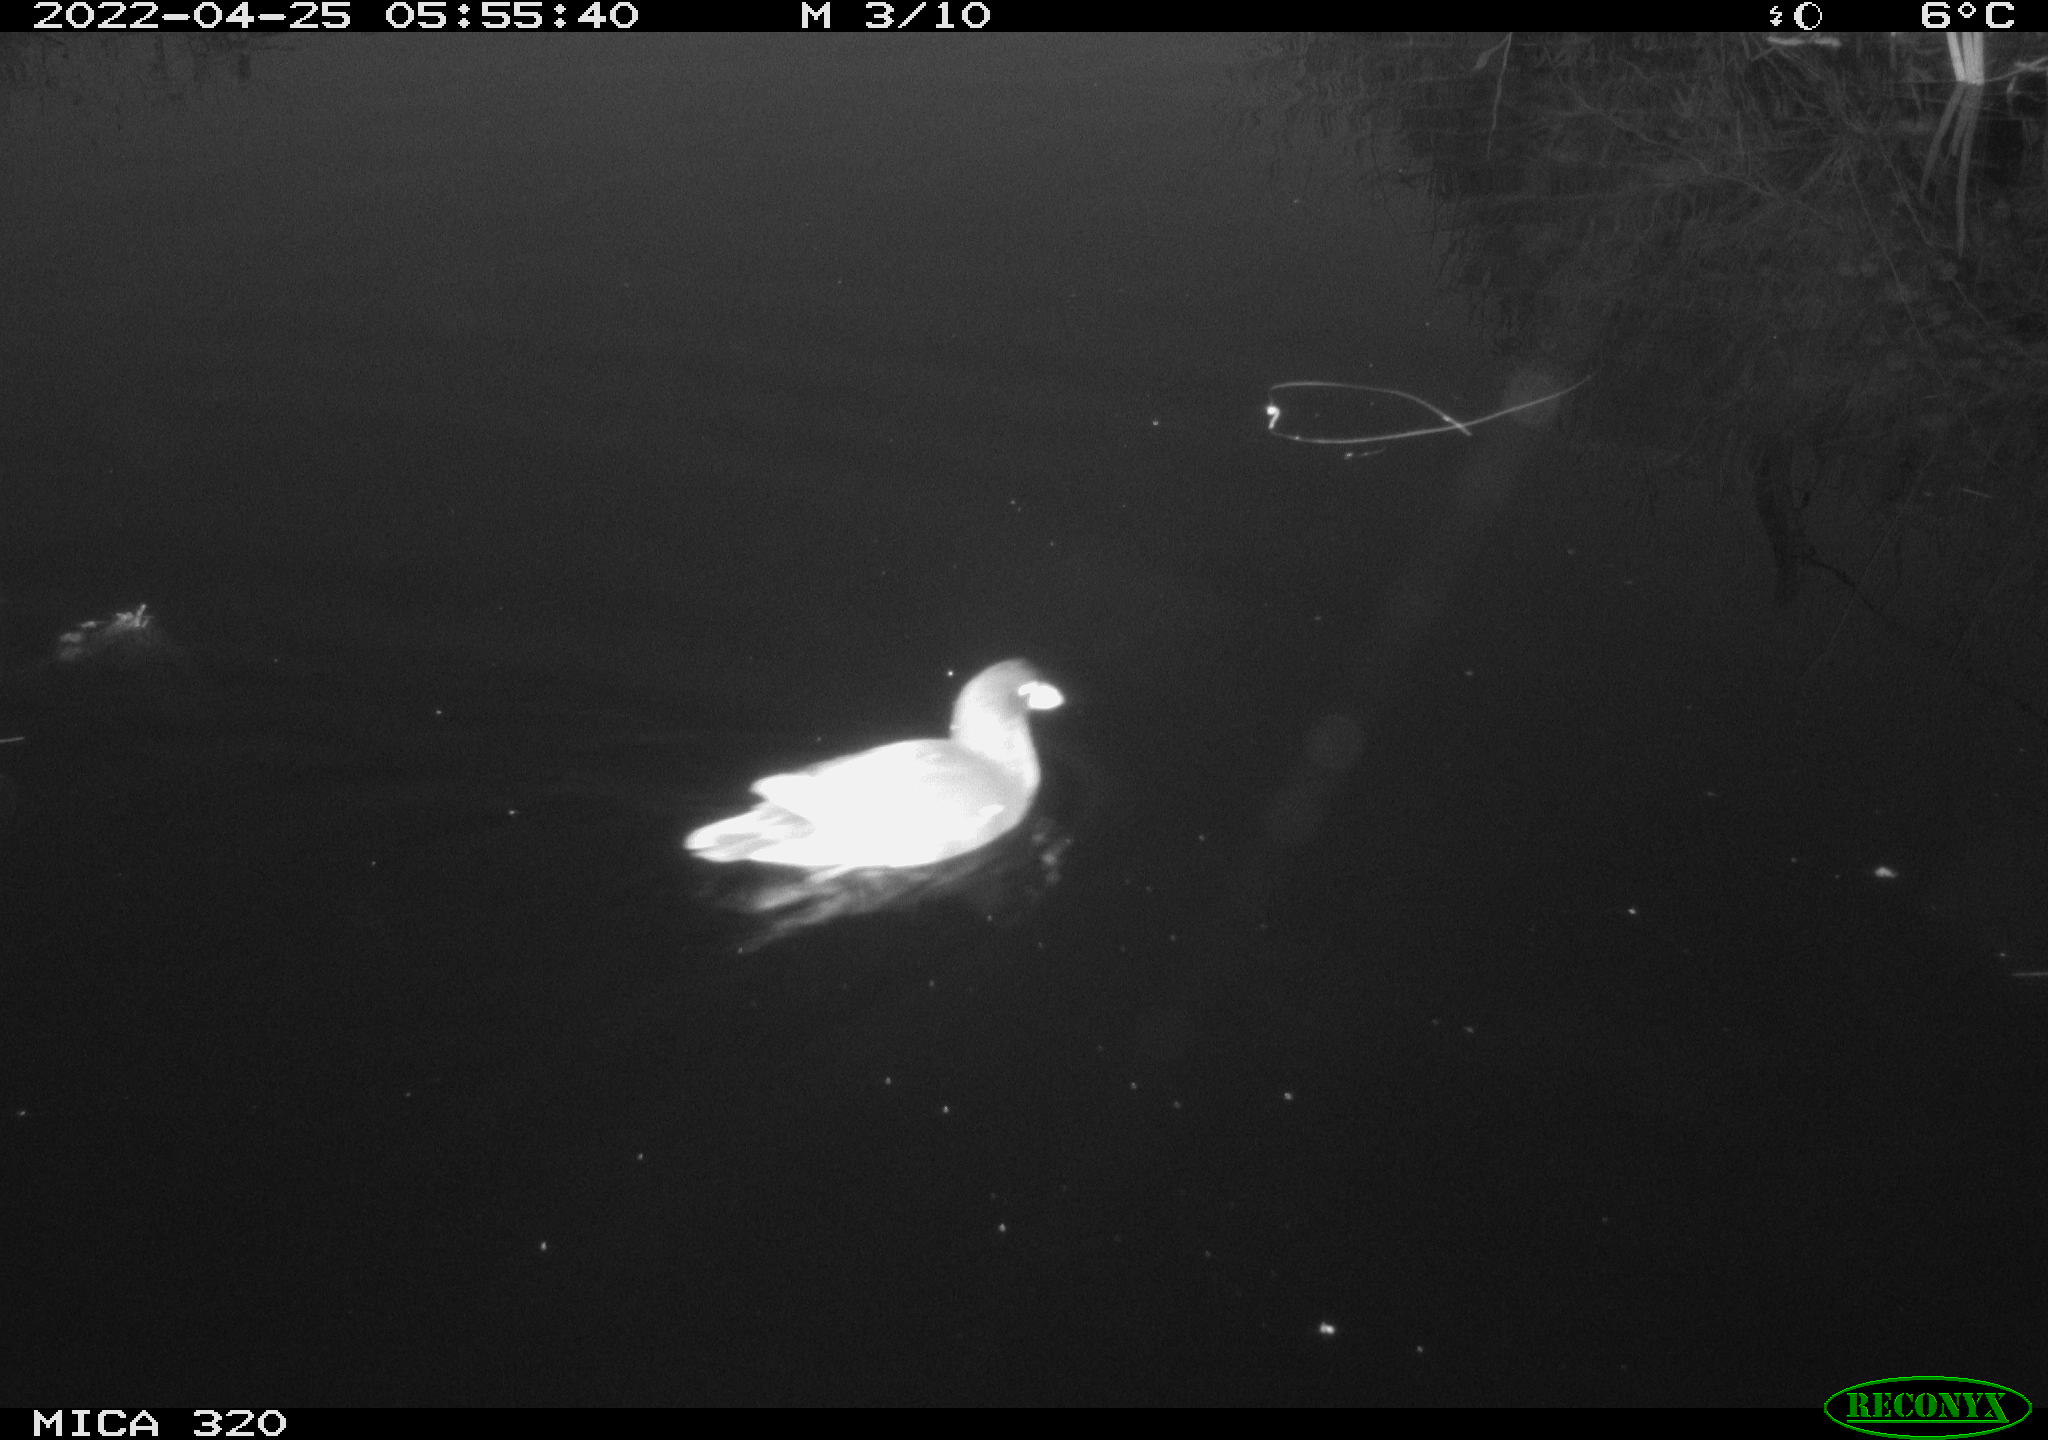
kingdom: Animalia
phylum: Chordata
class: Aves
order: Gruiformes
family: Rallidae
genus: Gallinula
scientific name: Gallinula chloropus
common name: Common moorhen
